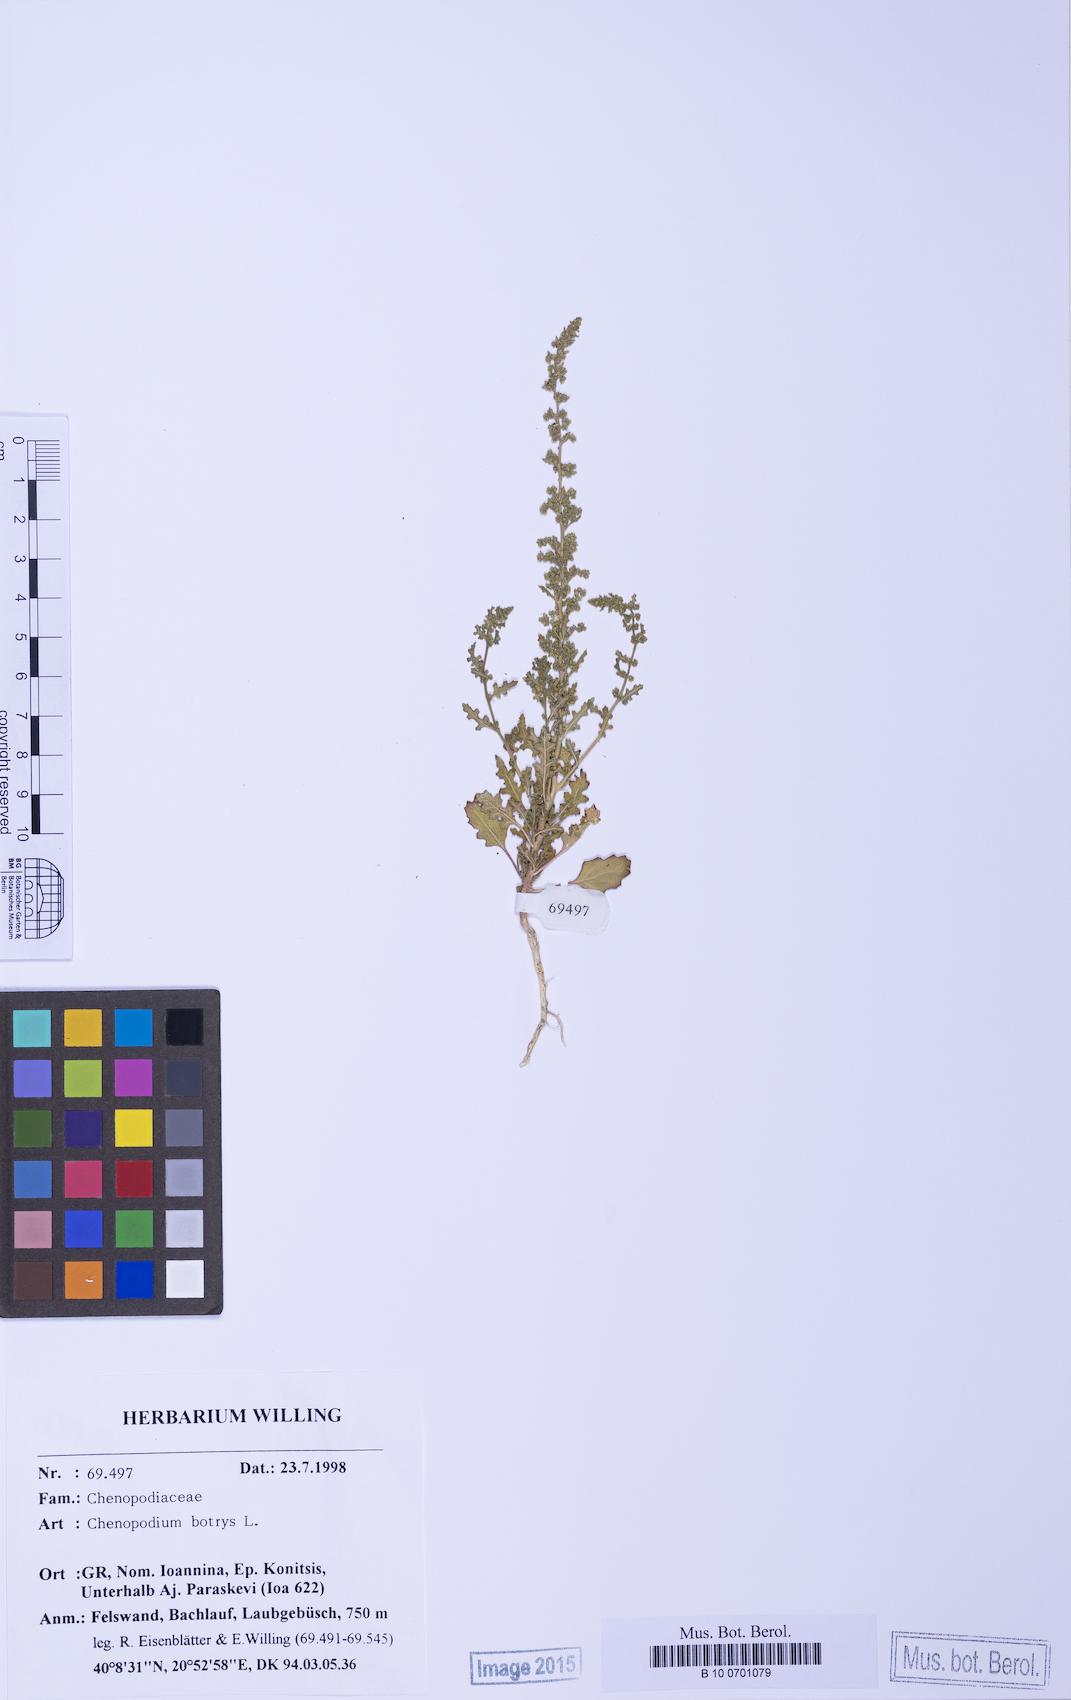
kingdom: Plantae
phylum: Tracheophyta
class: Magnoliopsida
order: Caryophyllales
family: Amaranthaceae
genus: Dysphania
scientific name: Dysphania botrys
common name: Feather-geranium
